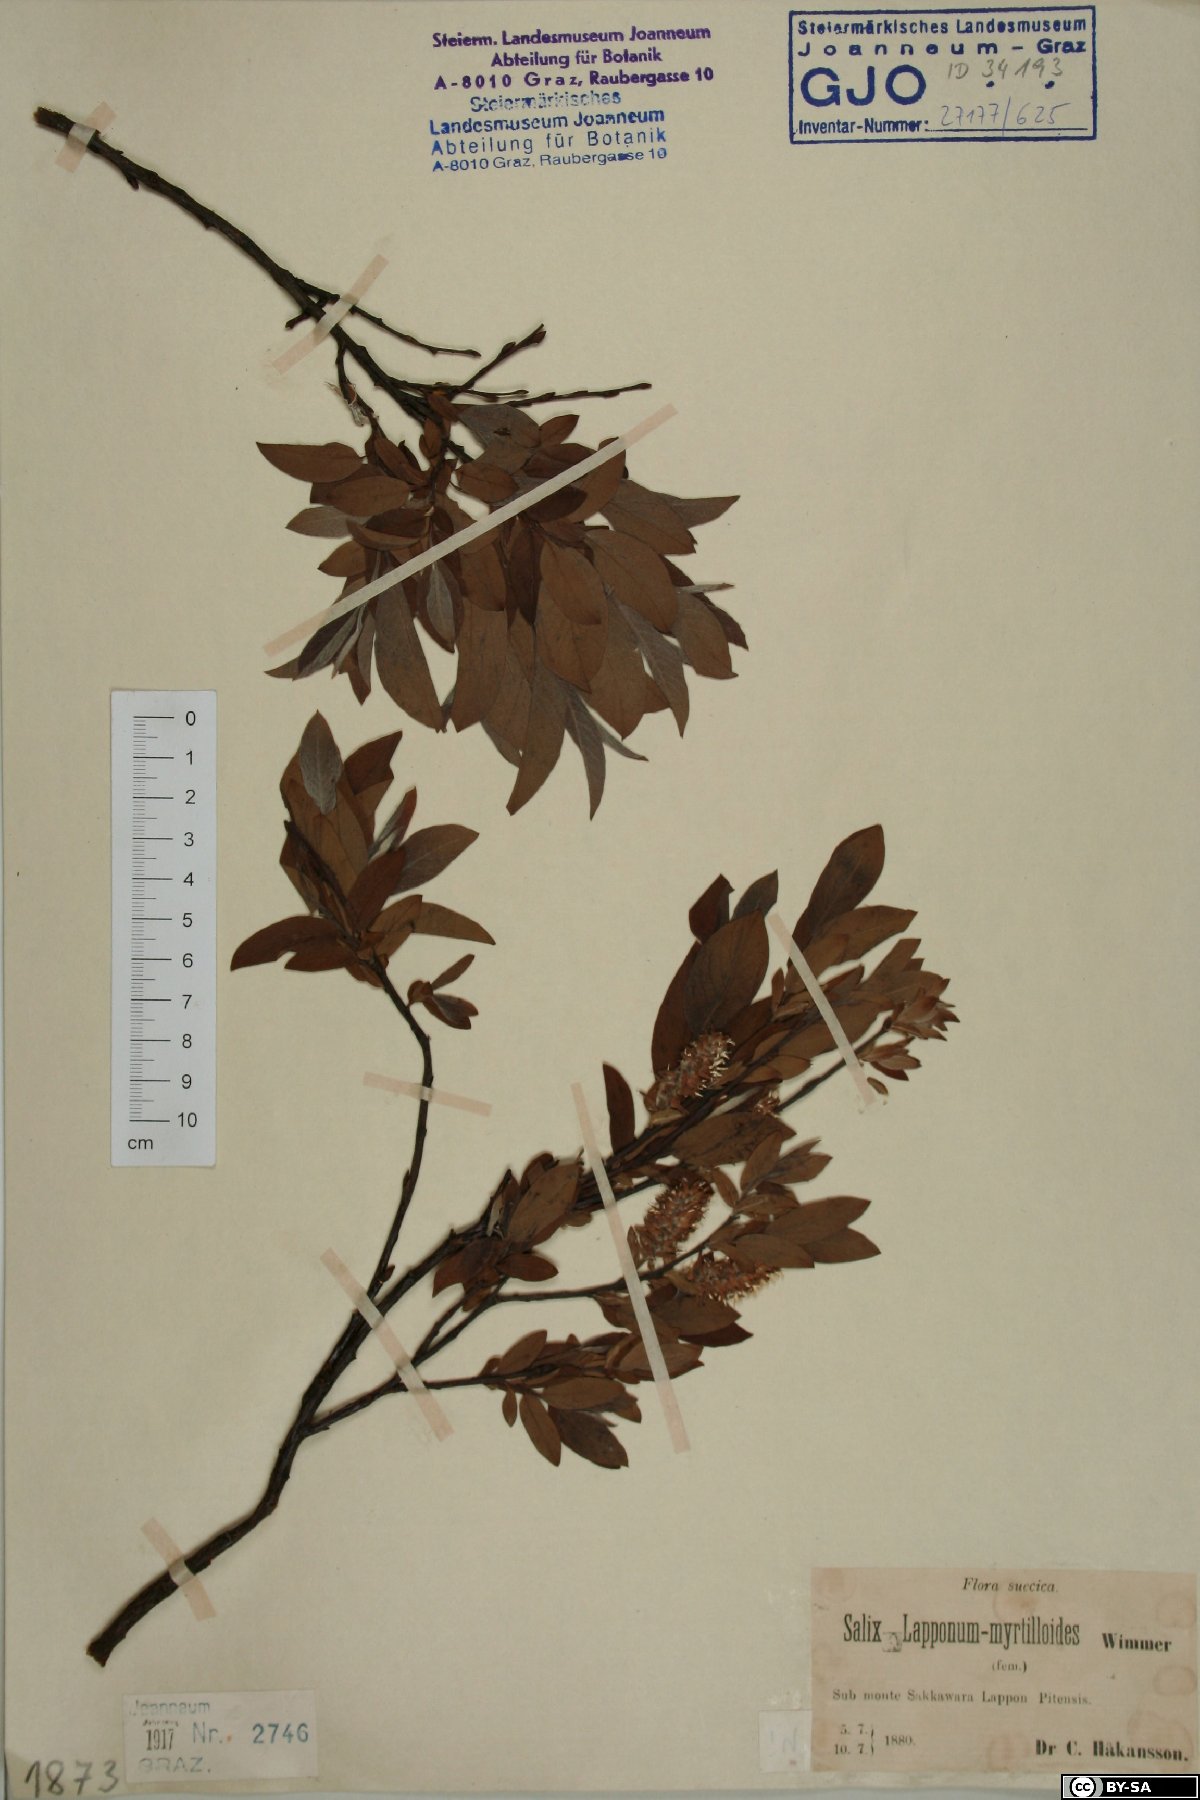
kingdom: Plantae
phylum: Tracheophyta
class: Magnoliopsida
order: Malpighiales
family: Salicaceae
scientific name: Salicaceae
